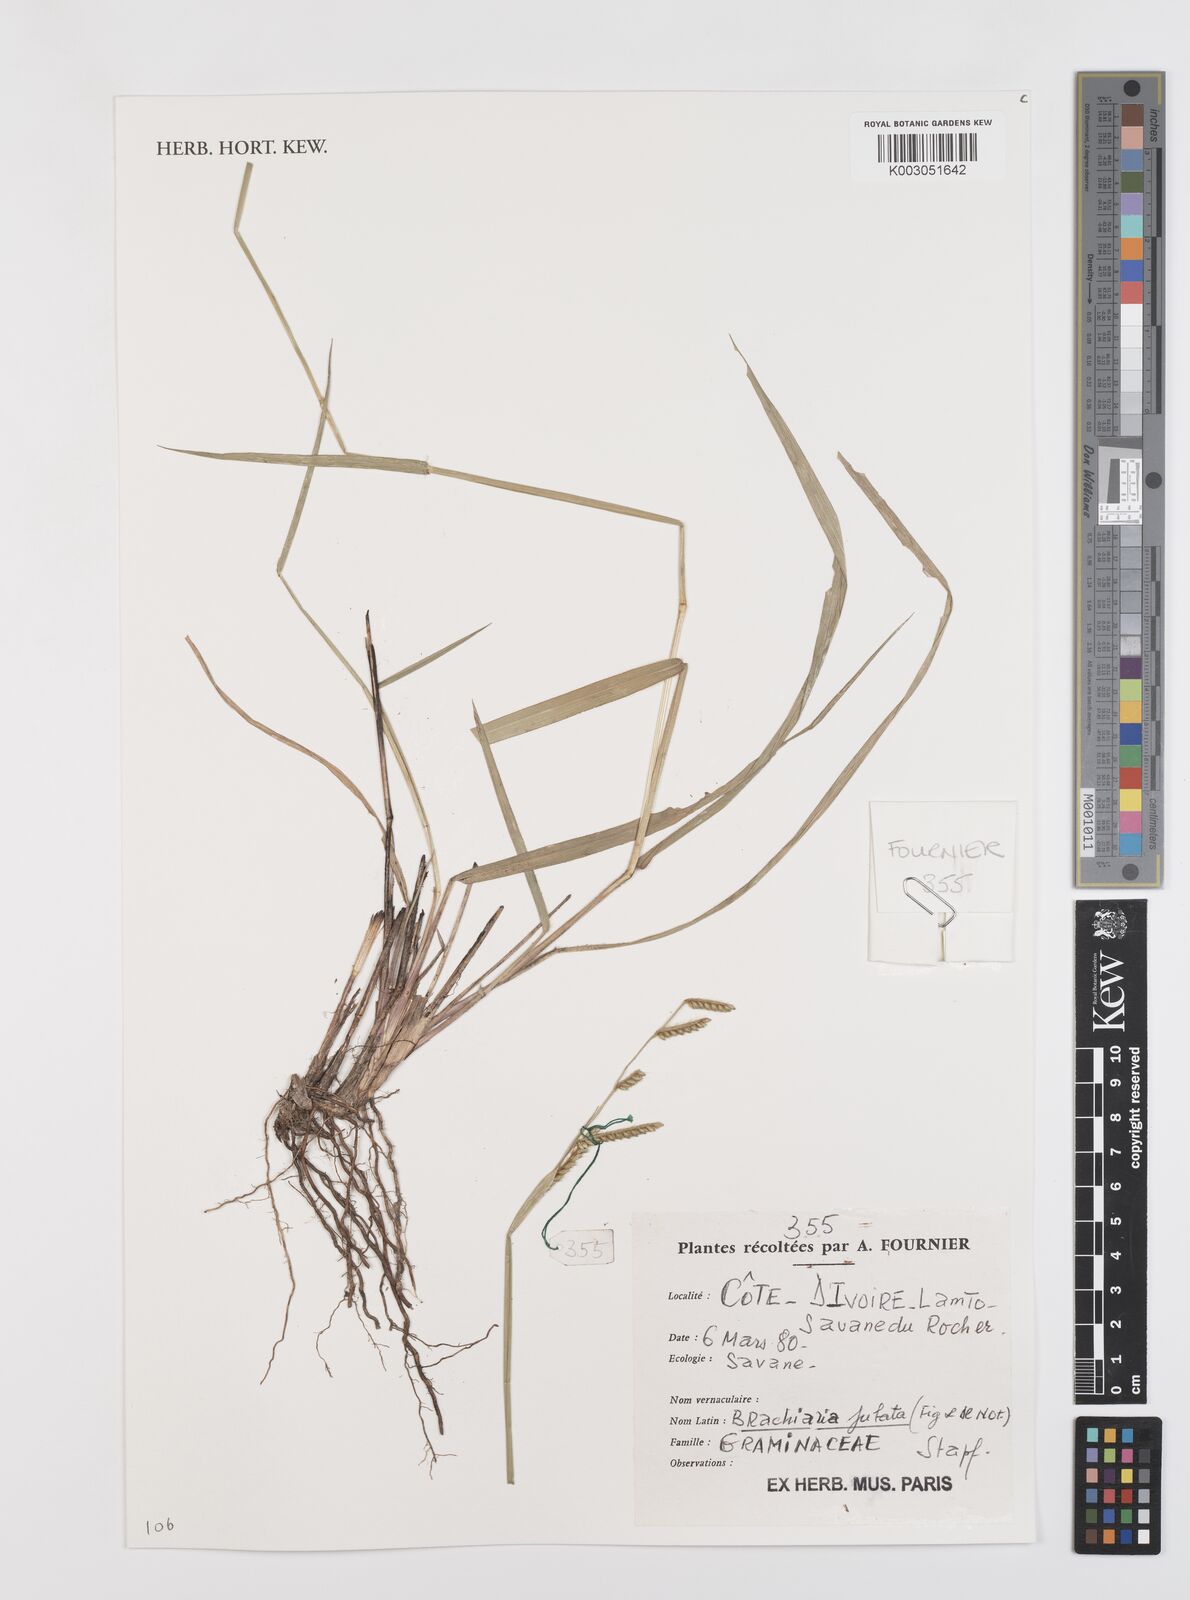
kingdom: Plantae
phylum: Tracheophyta
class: Liliopsida
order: Poales
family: Poaceae
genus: Urochloa
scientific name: Urochloa jubata
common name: Buffalograss
